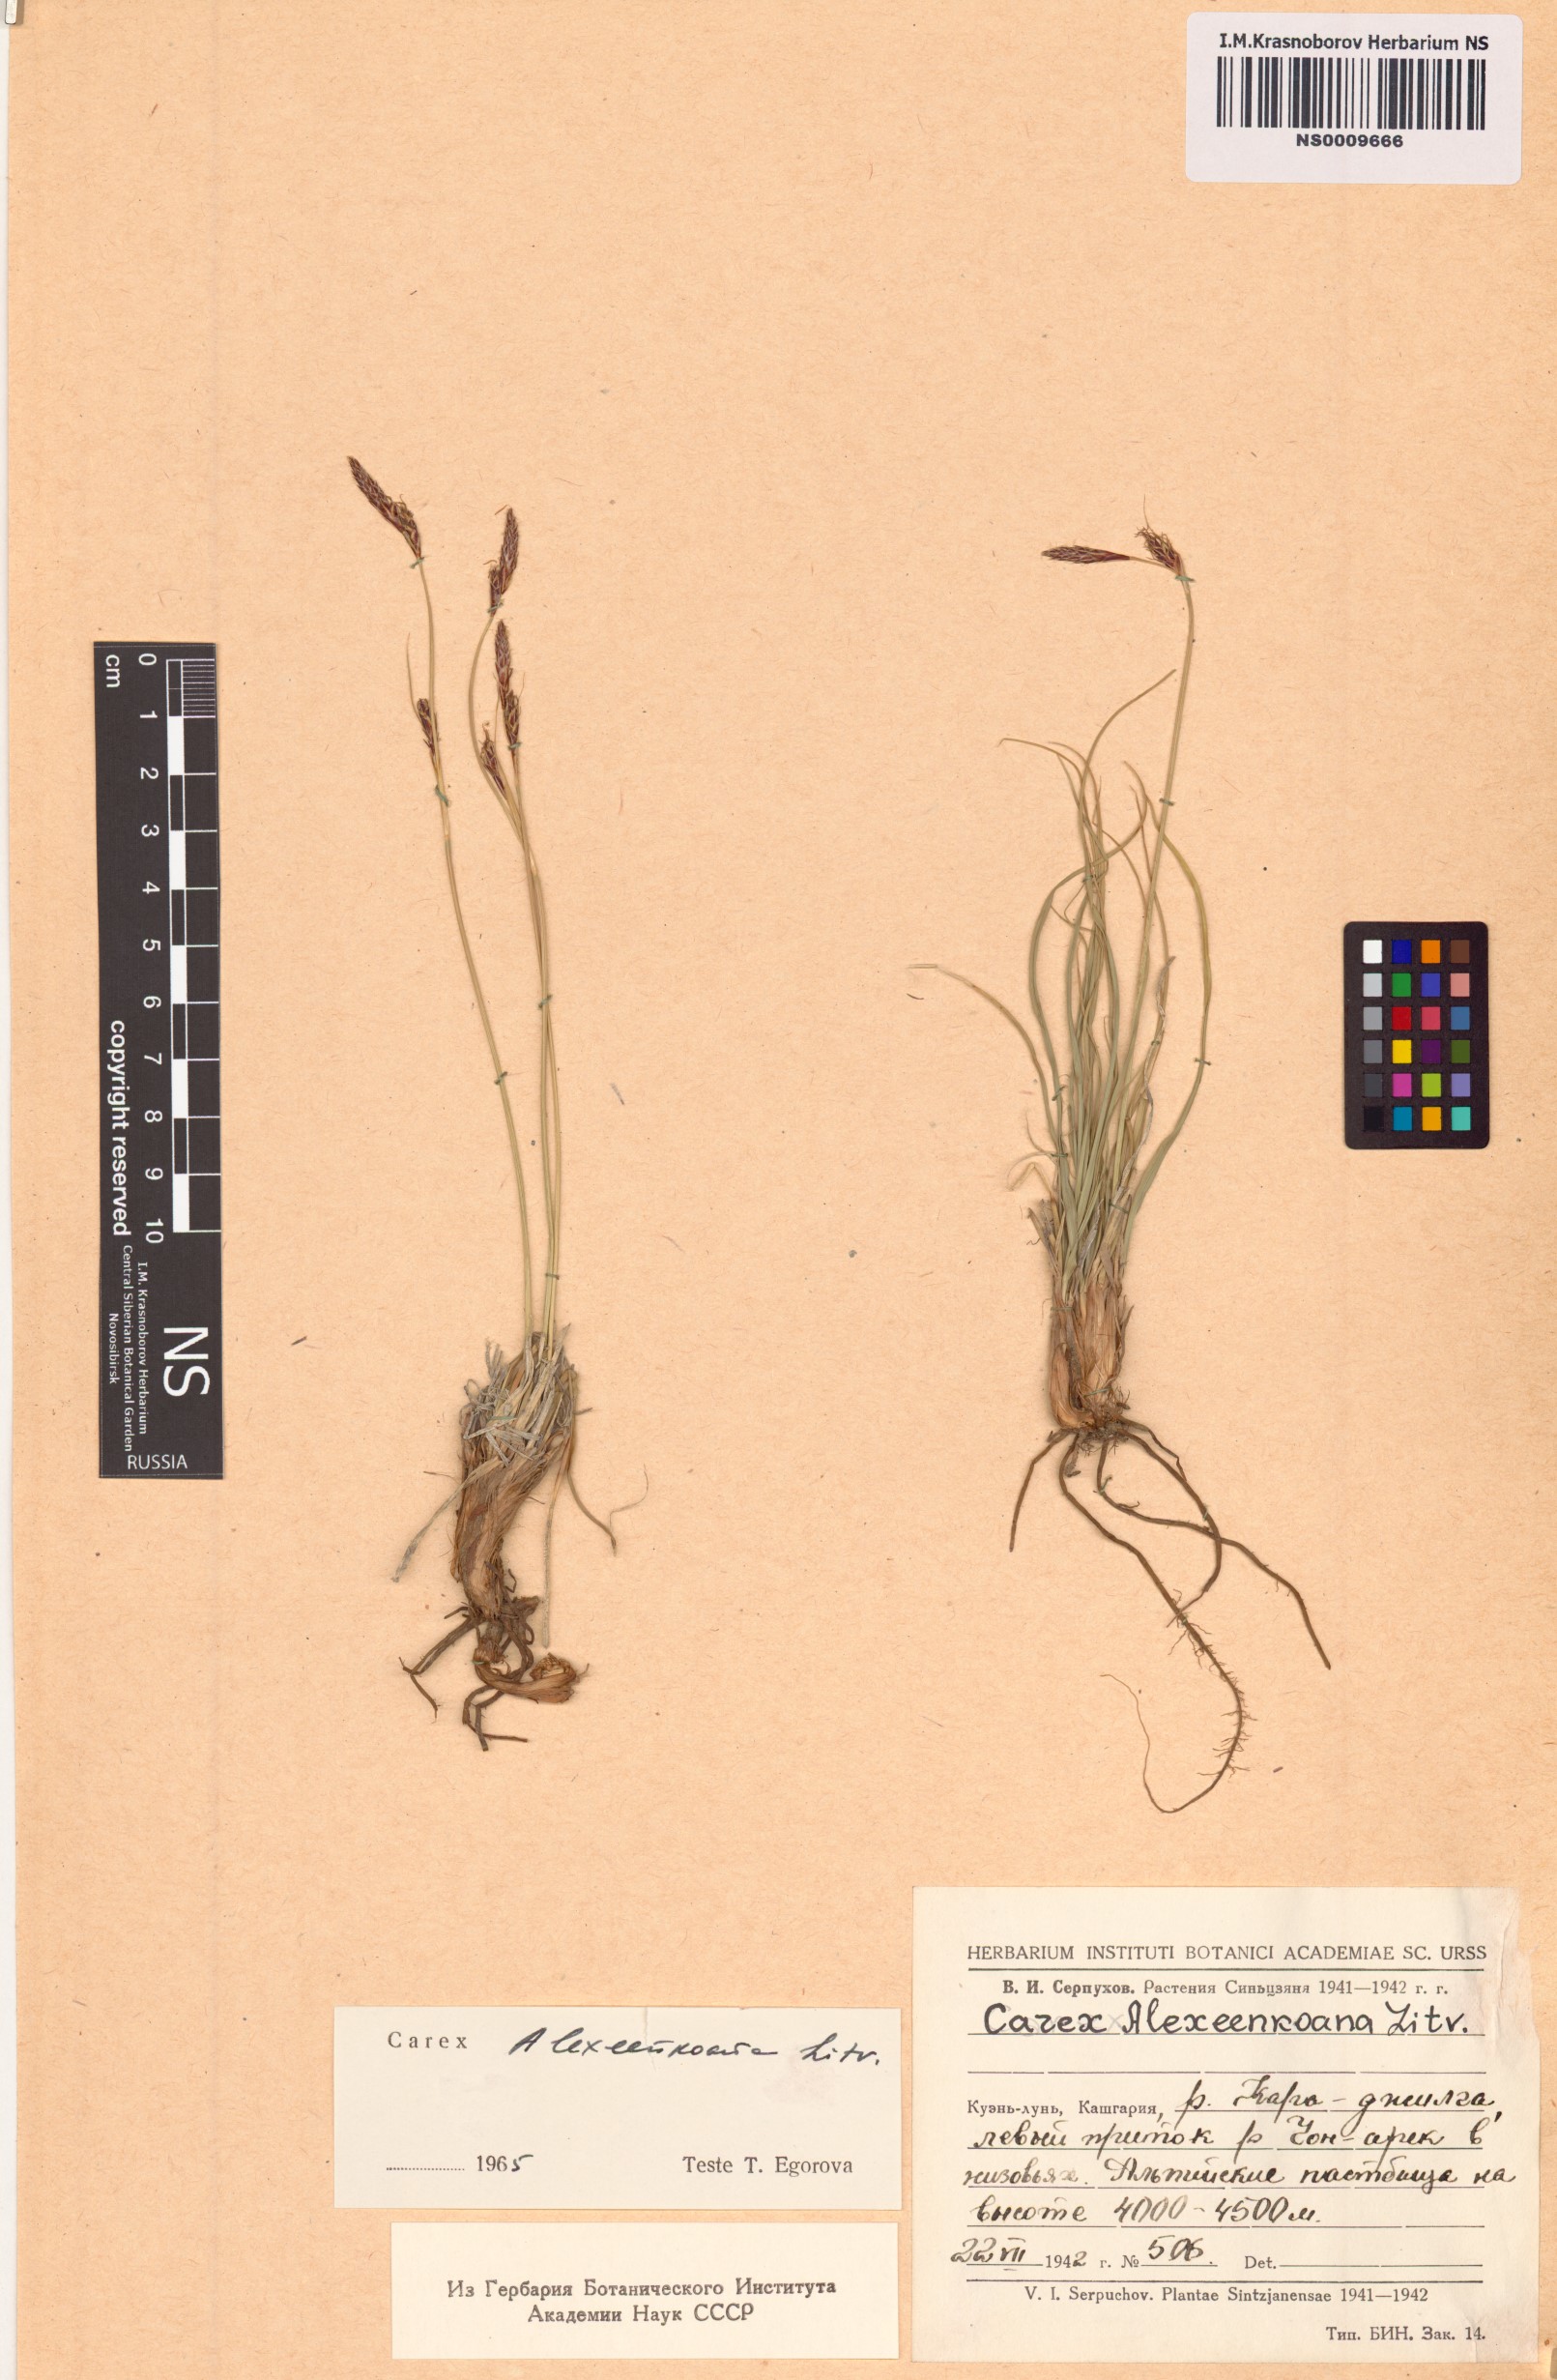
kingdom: Plantae
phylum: Tracheophyta
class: Liliopsida
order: Poales
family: Cyperaceae
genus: Carex
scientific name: Carex haematostoma
